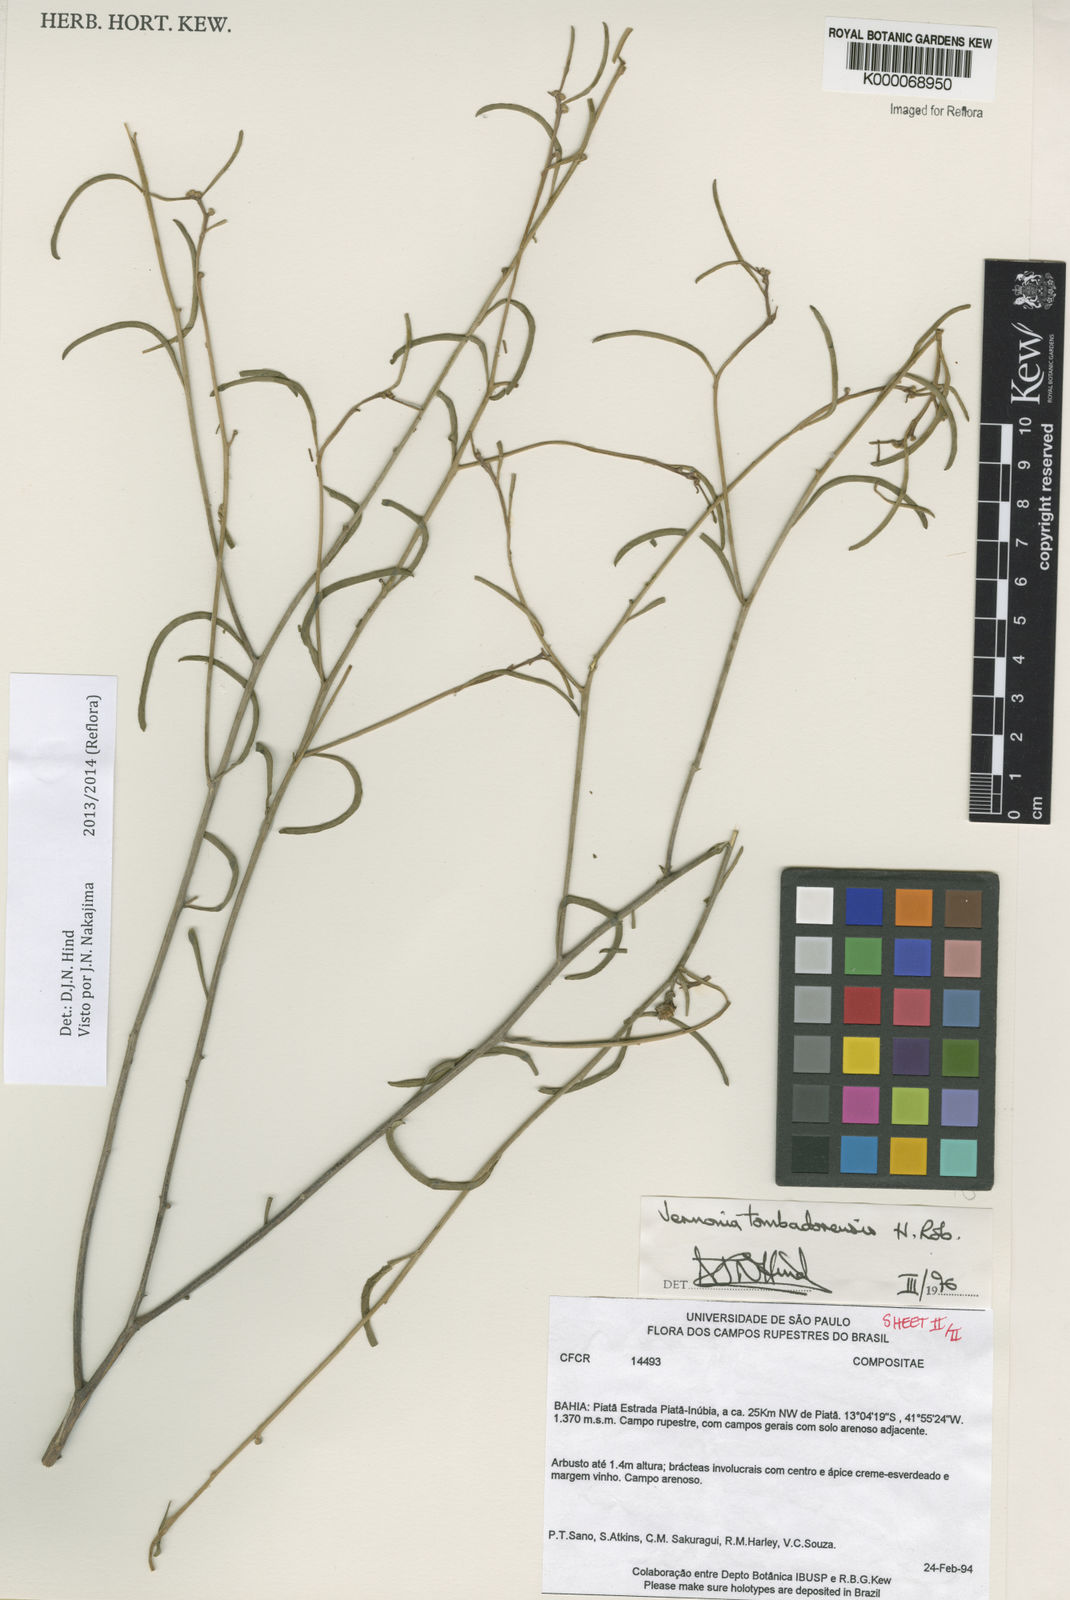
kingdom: Plantae
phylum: Tracheophyta
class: Magnoliopsida
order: Asterales
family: Asteraceae
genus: Lepidaploa
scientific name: Lepidaploa tombadorensis
